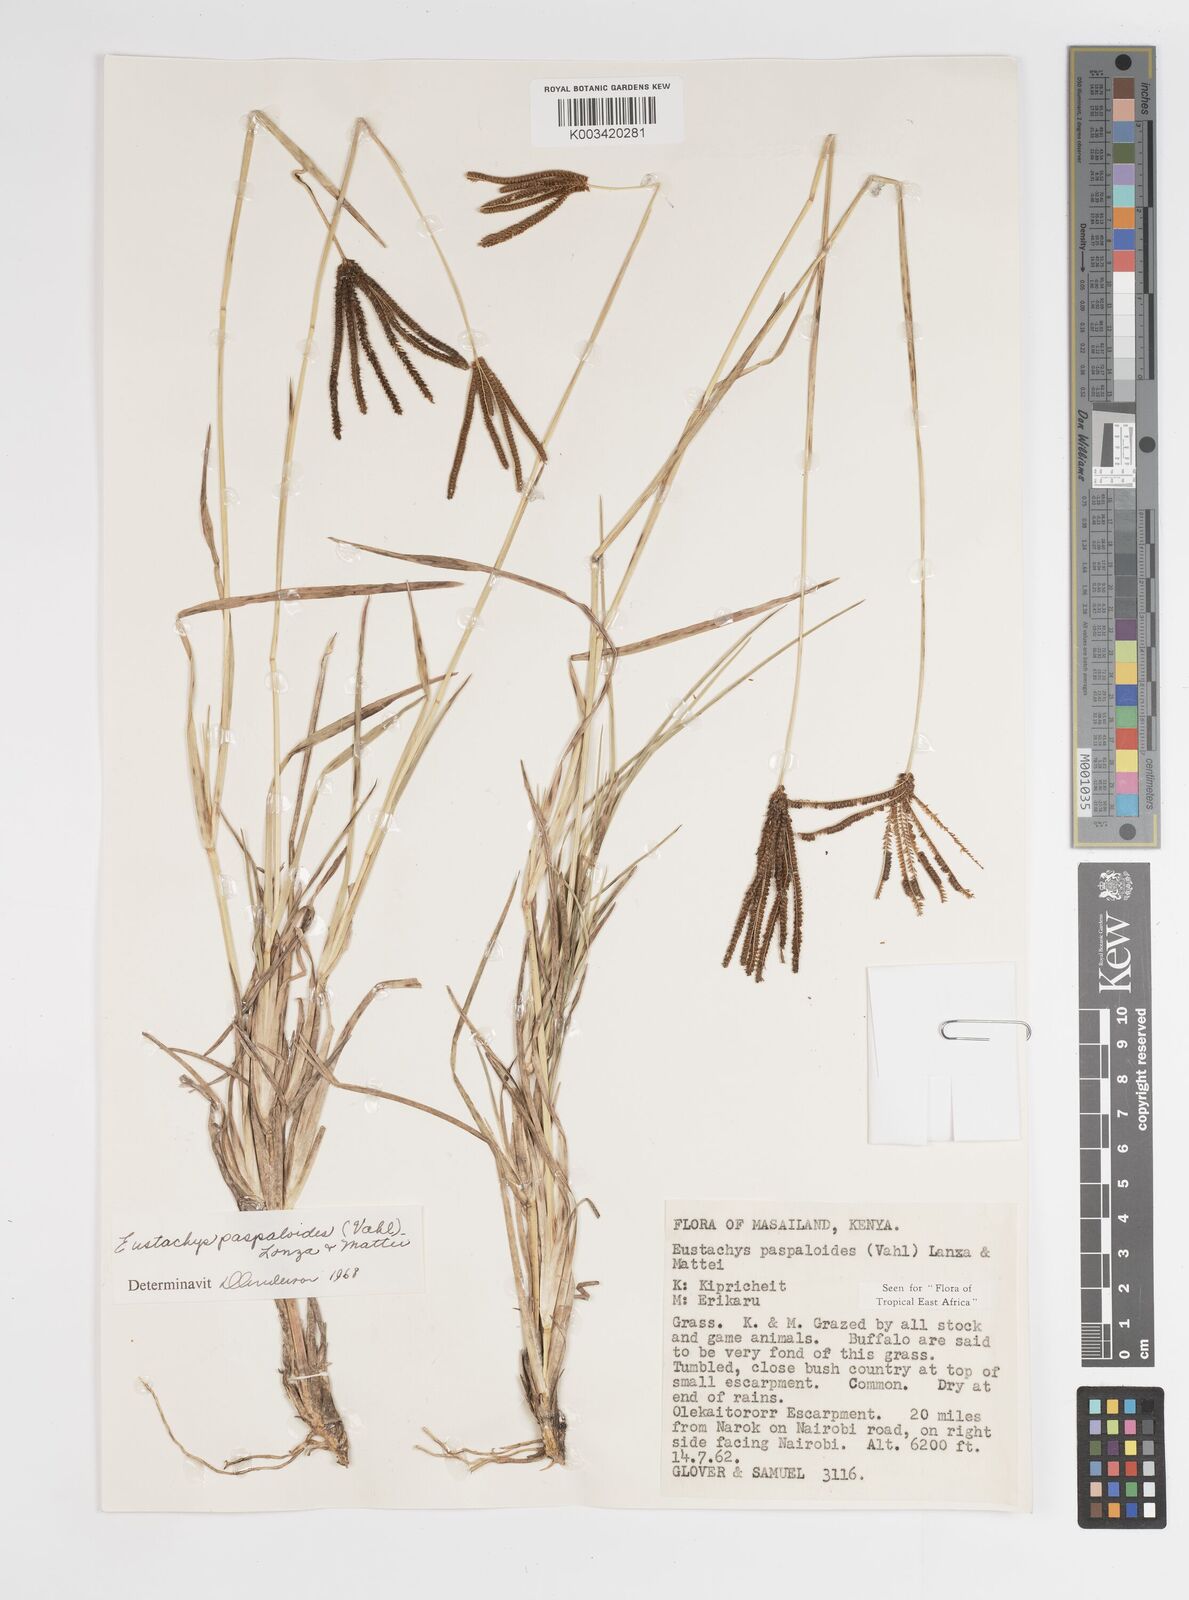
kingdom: Plantae
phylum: Tracheophyta
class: Liliopsida
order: Poales
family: Poaceae
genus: Eustachys
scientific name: Eustachys paspaloides
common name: Caribbean fingergrass
